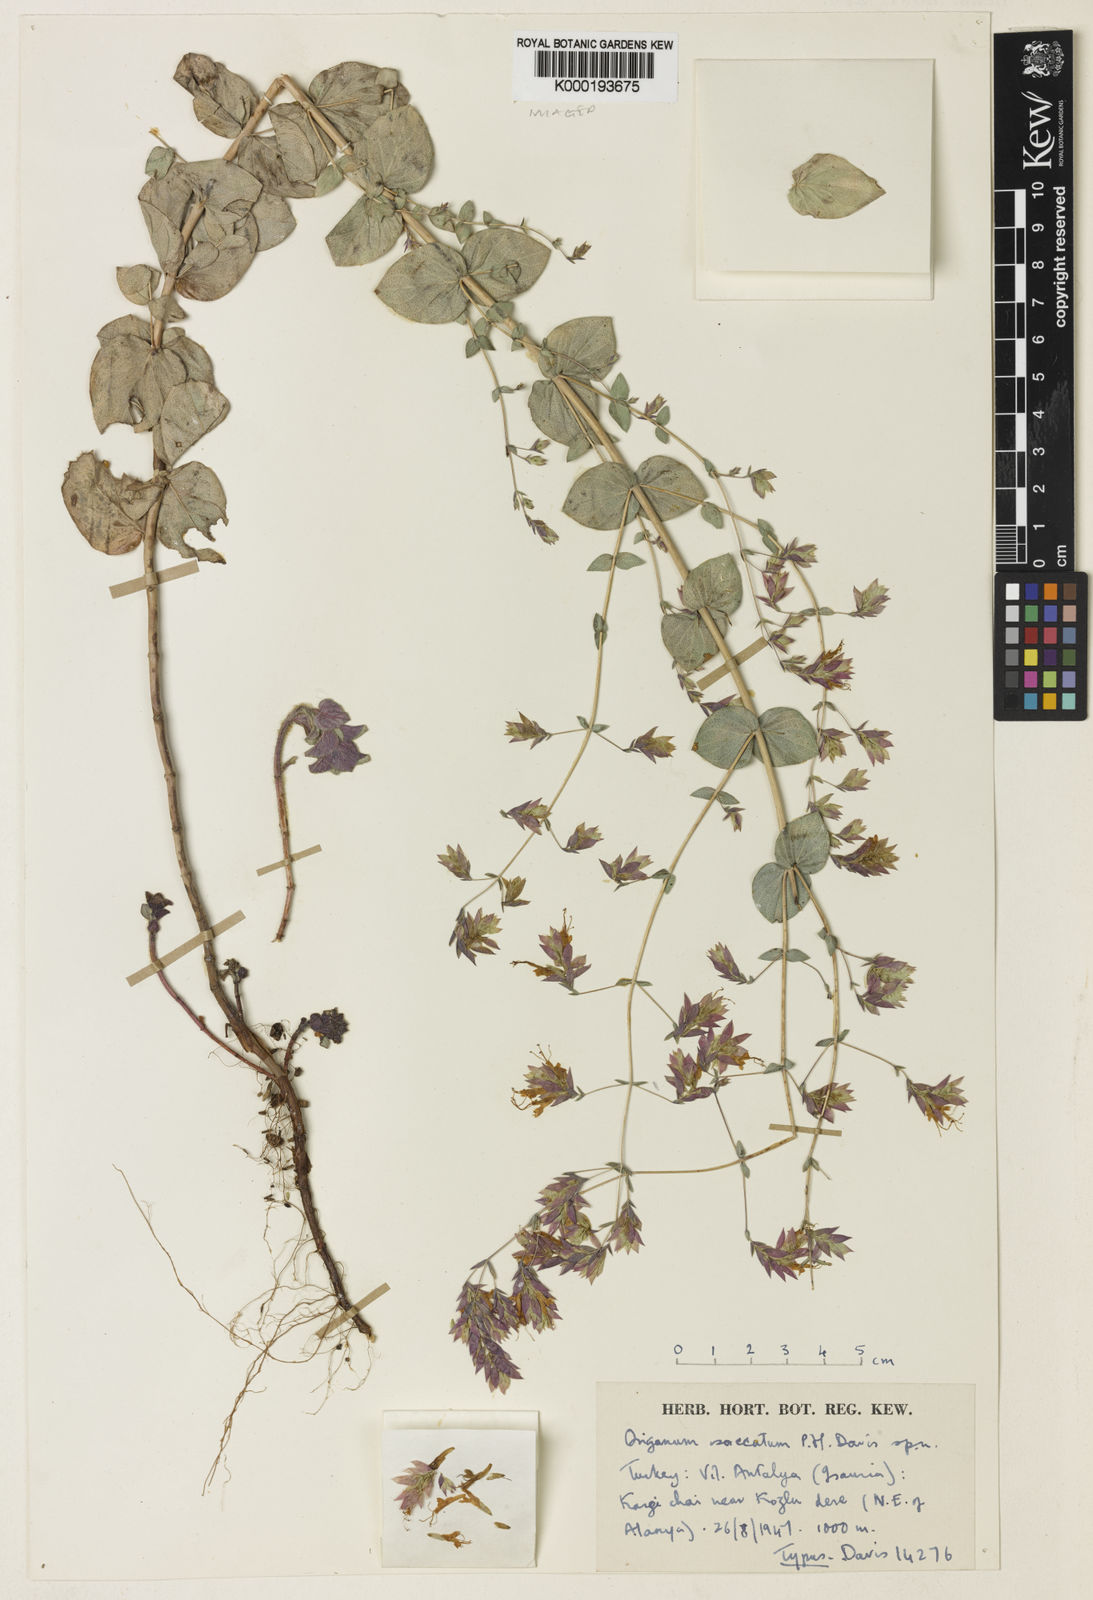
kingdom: Plantae
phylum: Tracheophyta
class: Magnoliopsida
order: Lamiales
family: Lamiaceae
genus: Origanum
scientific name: Origanum saccatum
